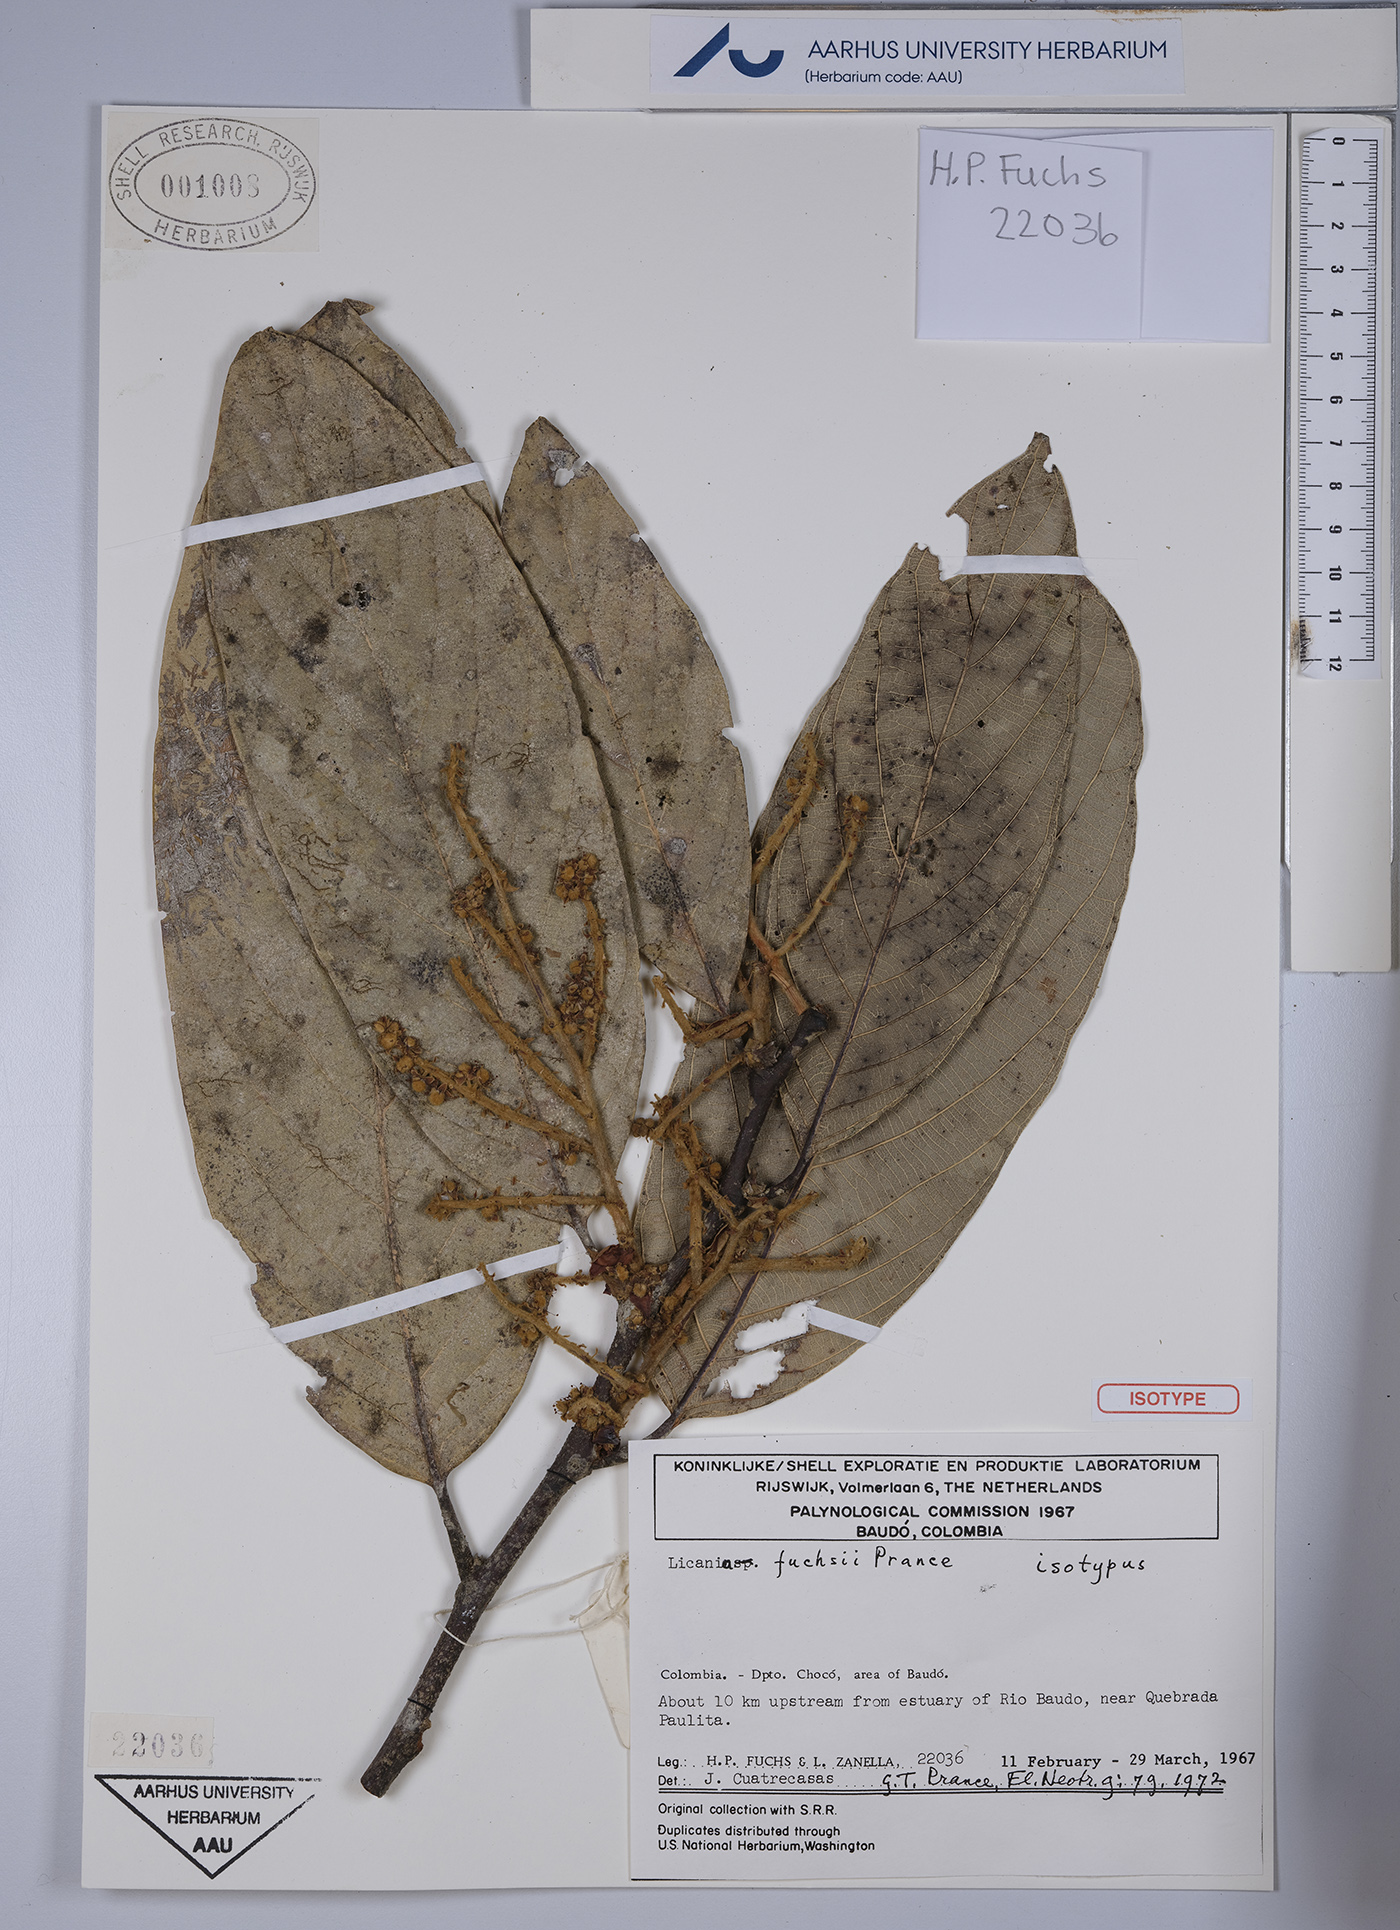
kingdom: Plantae
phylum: Tracheophyta
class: Magnoliopsida
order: Malpighiales
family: Chrysobalanaceae
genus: Leptobalanus
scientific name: Leptobalanus fuchsii
